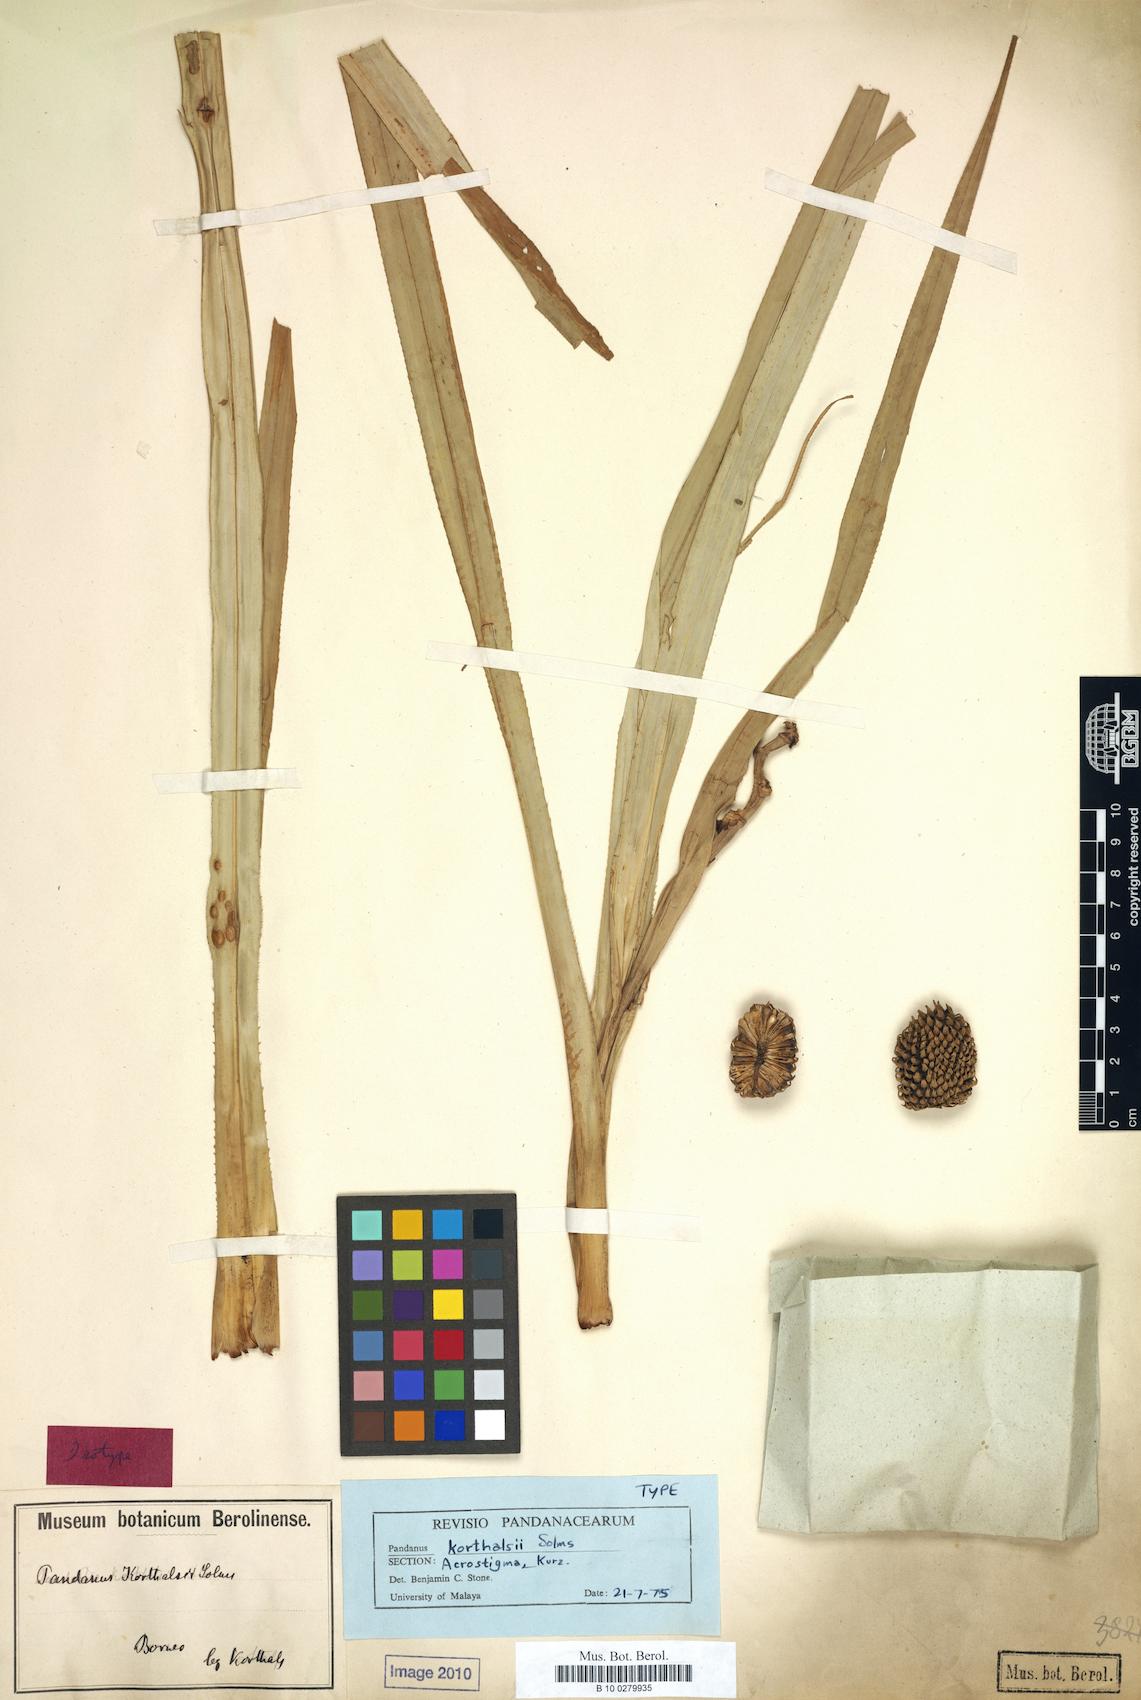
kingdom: Plantae
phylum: Tracheophyta
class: Liliopsida
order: Pandanales
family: Pandanaceae
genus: Benstonea
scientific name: Benstonea korthalsii
